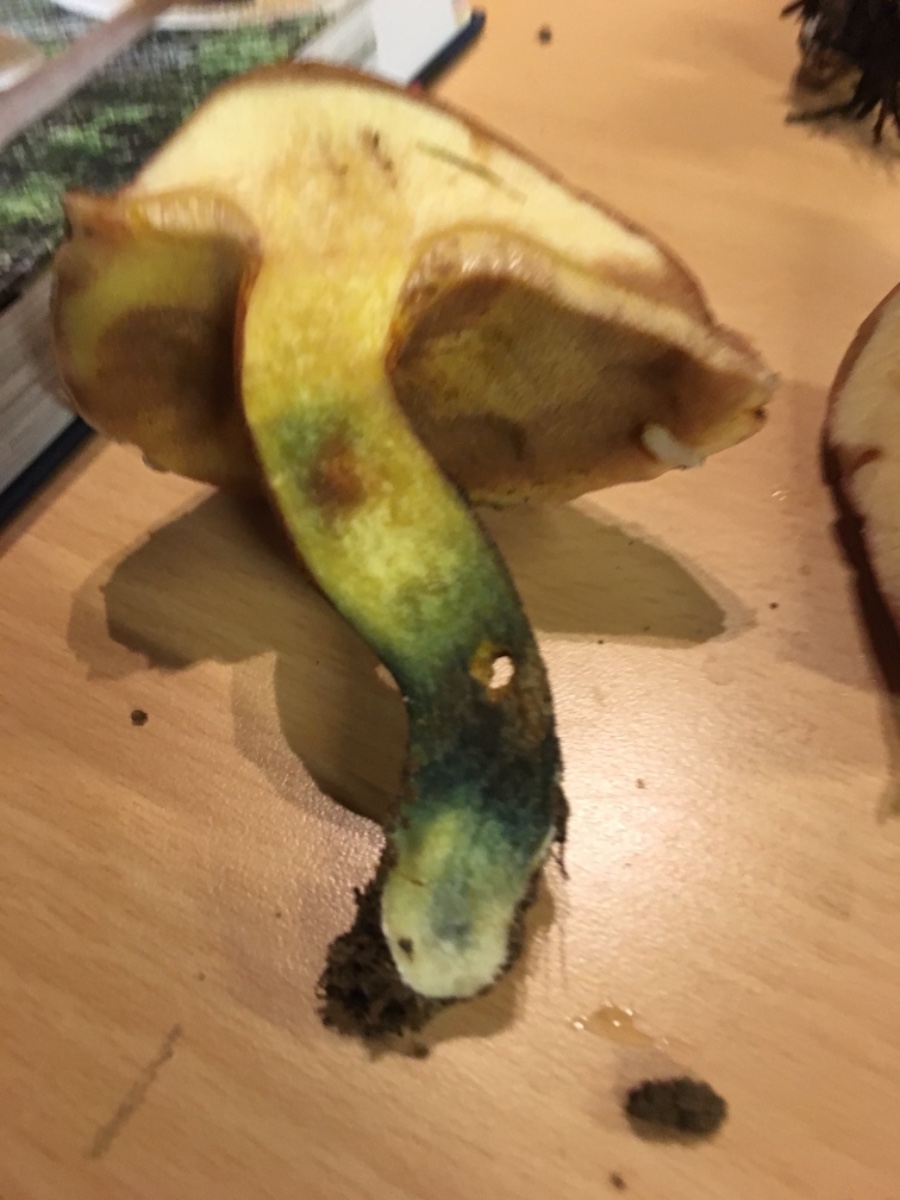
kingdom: Fungi
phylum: Basidiomycota
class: Agaricomycetes
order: Boletales
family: Suillaceae
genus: Suillus
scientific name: Suillus grevillei
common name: lærke-slimrørhat
